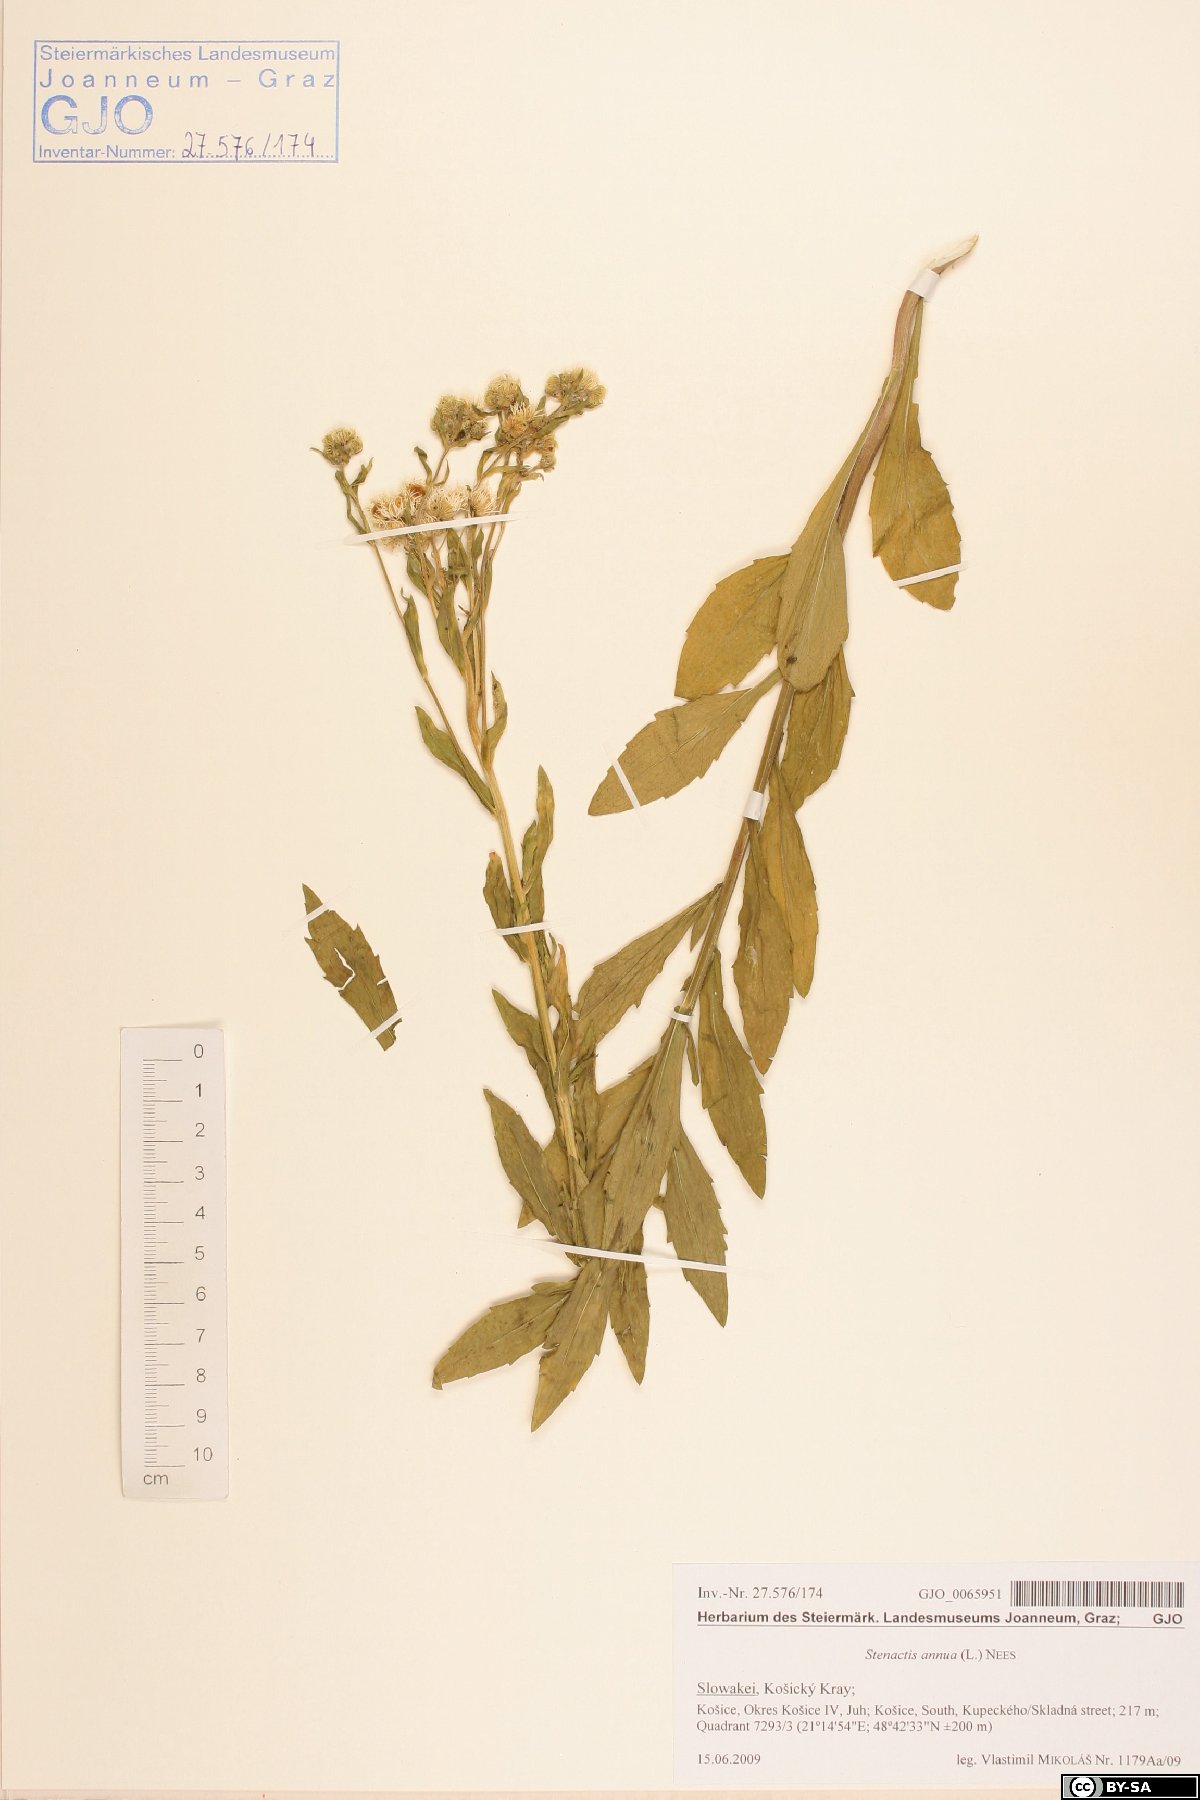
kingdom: Plantae
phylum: Tracheophyta
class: Magnoliopsida
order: Asterales
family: Asteraceae
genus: Erigeron
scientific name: Erigeron annuus
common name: Tall fleabane
